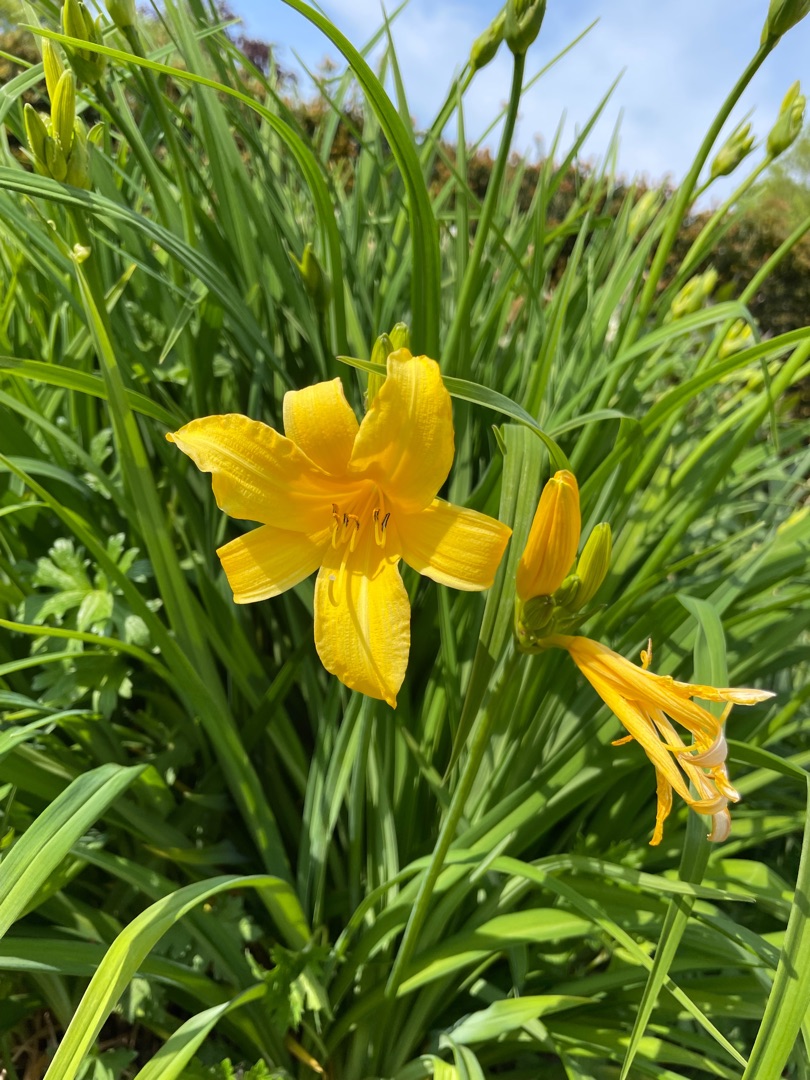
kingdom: Plantae
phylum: Tracheophyta
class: Liliopsida
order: Asparagales
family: Asphodelaceae
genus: Hemerocallis
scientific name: Hemerocallis lilioasphodelus
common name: Gul daglilje
